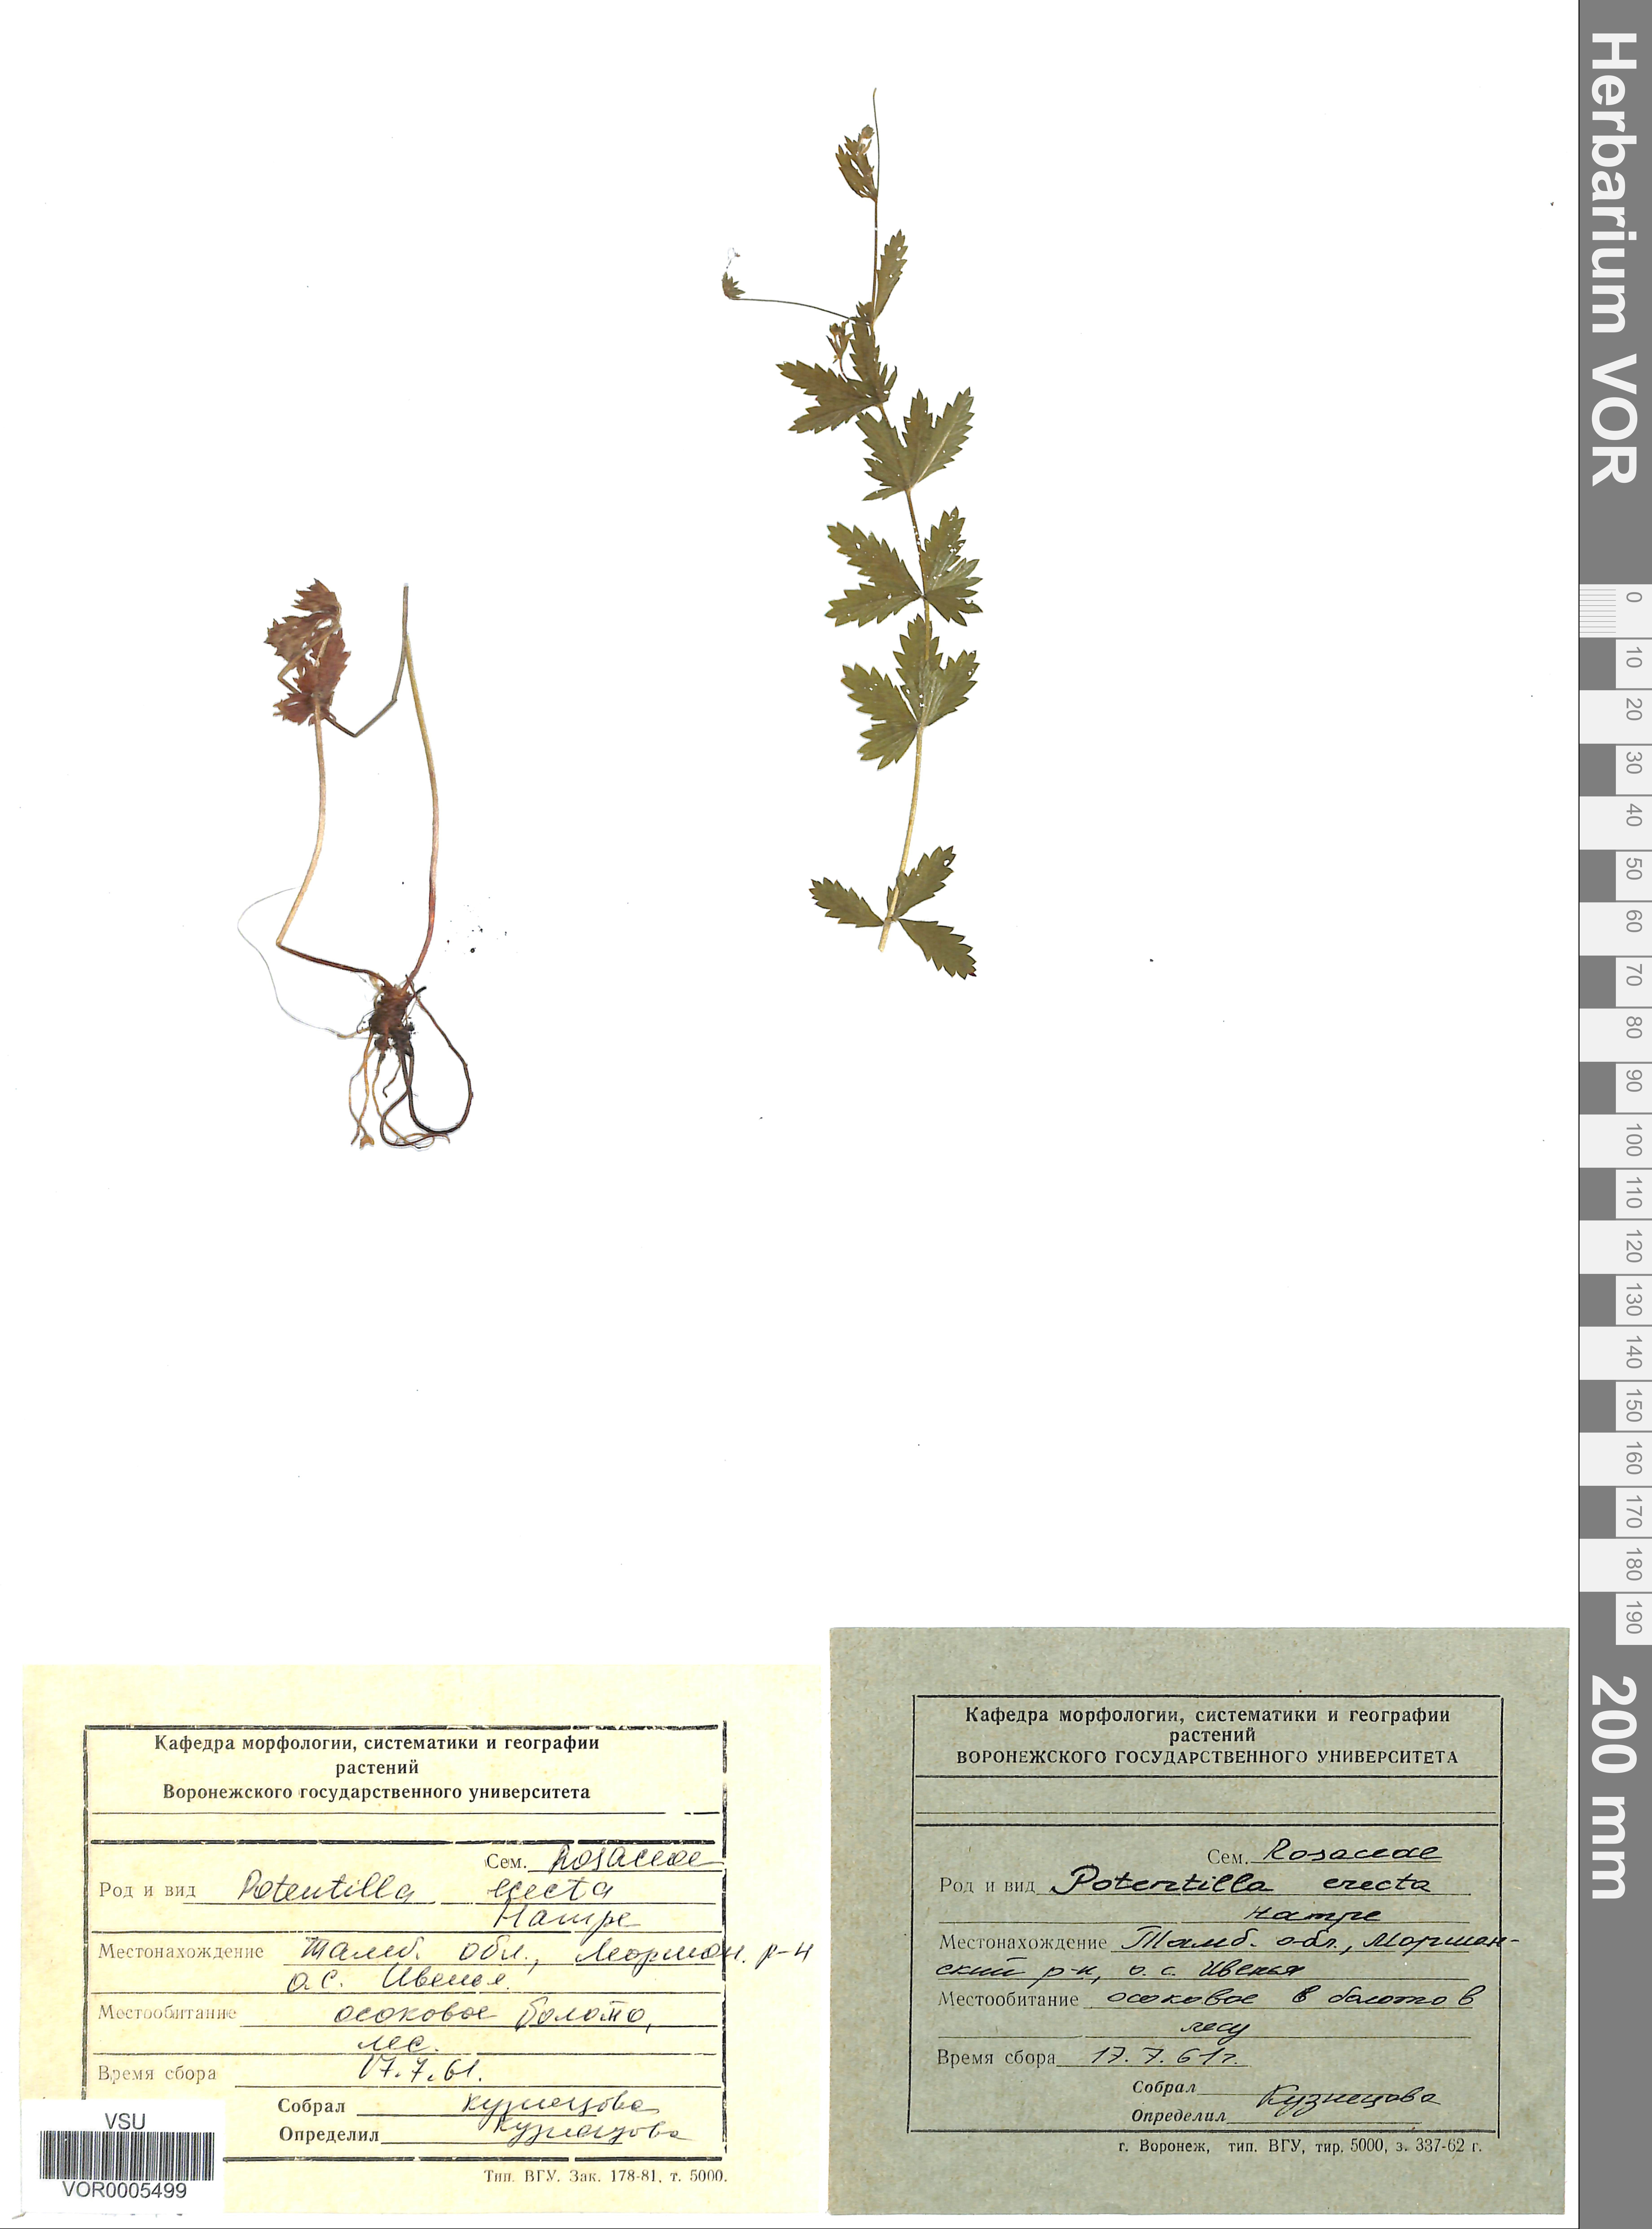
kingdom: Plantae
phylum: Tracheophyta
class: Magnoliopsida
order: Rosales
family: Rosaceae
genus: Potentilla
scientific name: Potentilla erecta
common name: Tormentil
